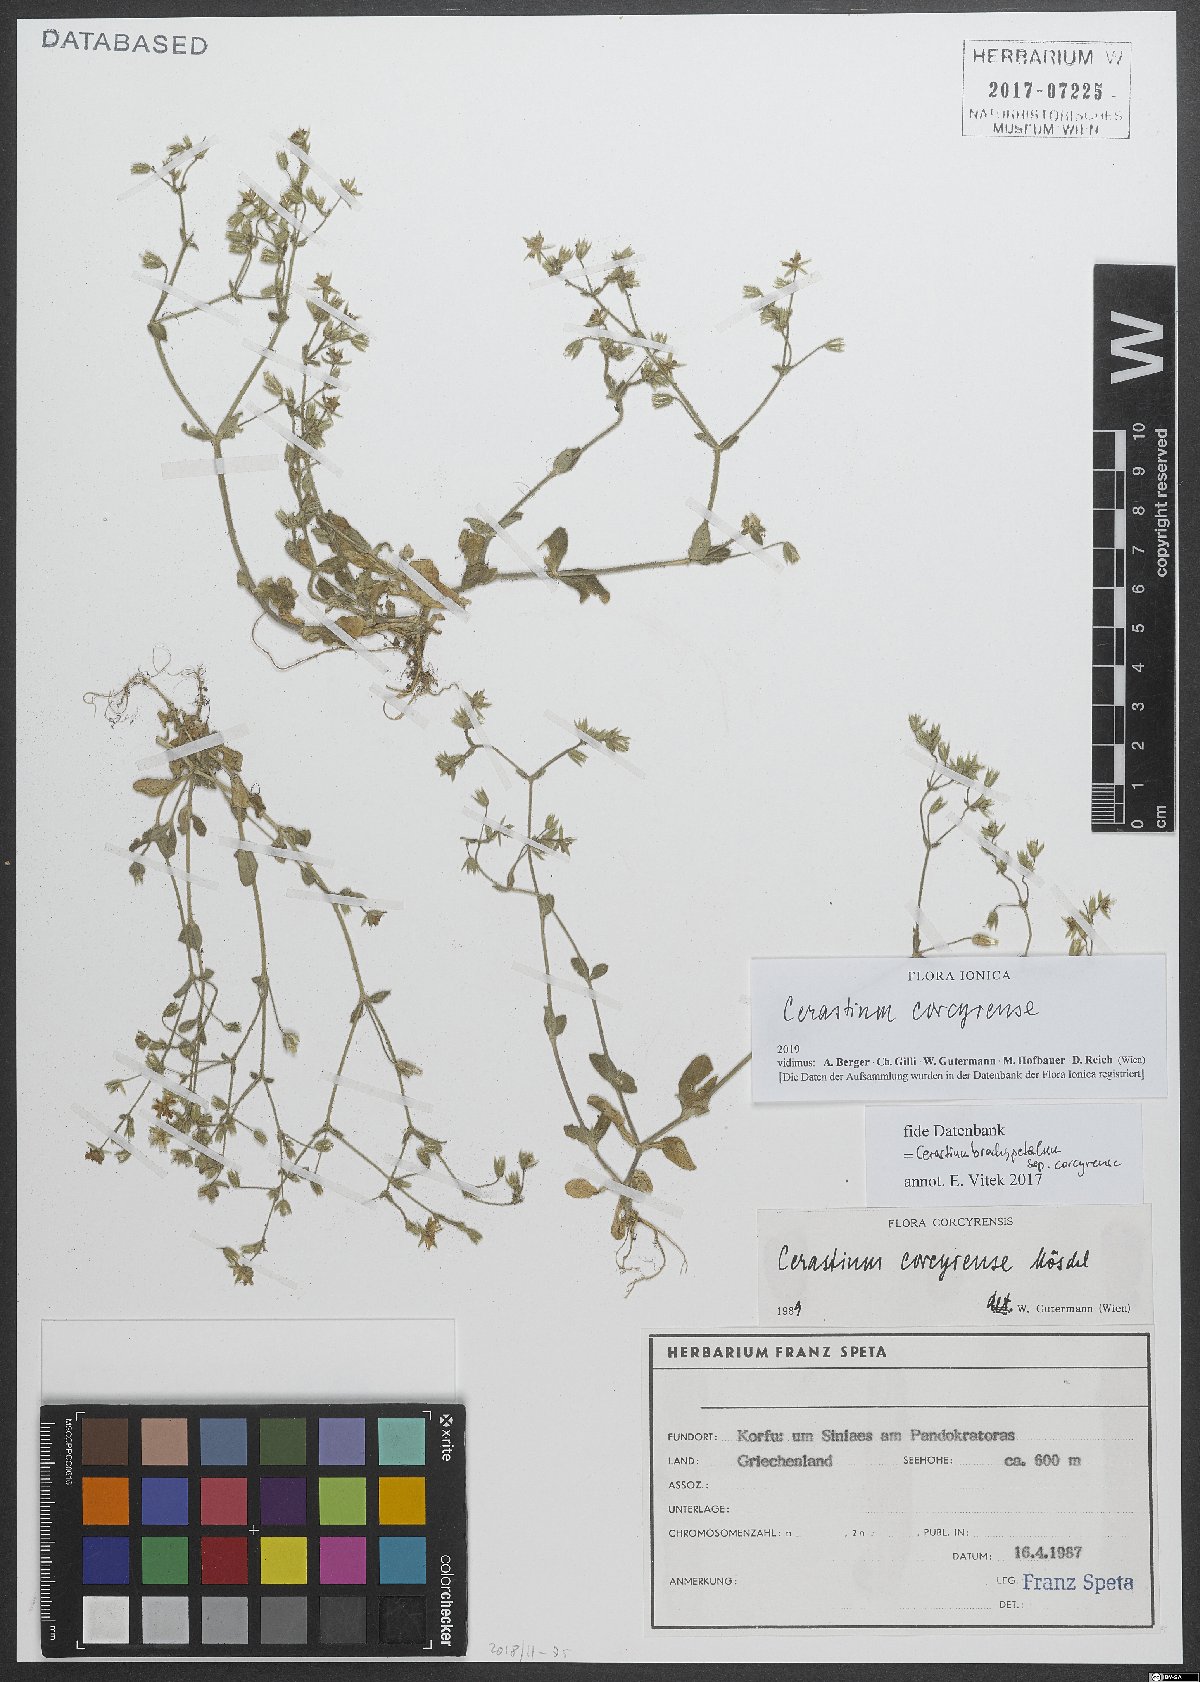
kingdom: Plantae
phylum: Tracheophyta
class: Magnoliopsida
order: Caryophyllales
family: Caryophyllaceae
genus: Cerastium
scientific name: Cerastium brachypetalum
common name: Grey mouse-ear
